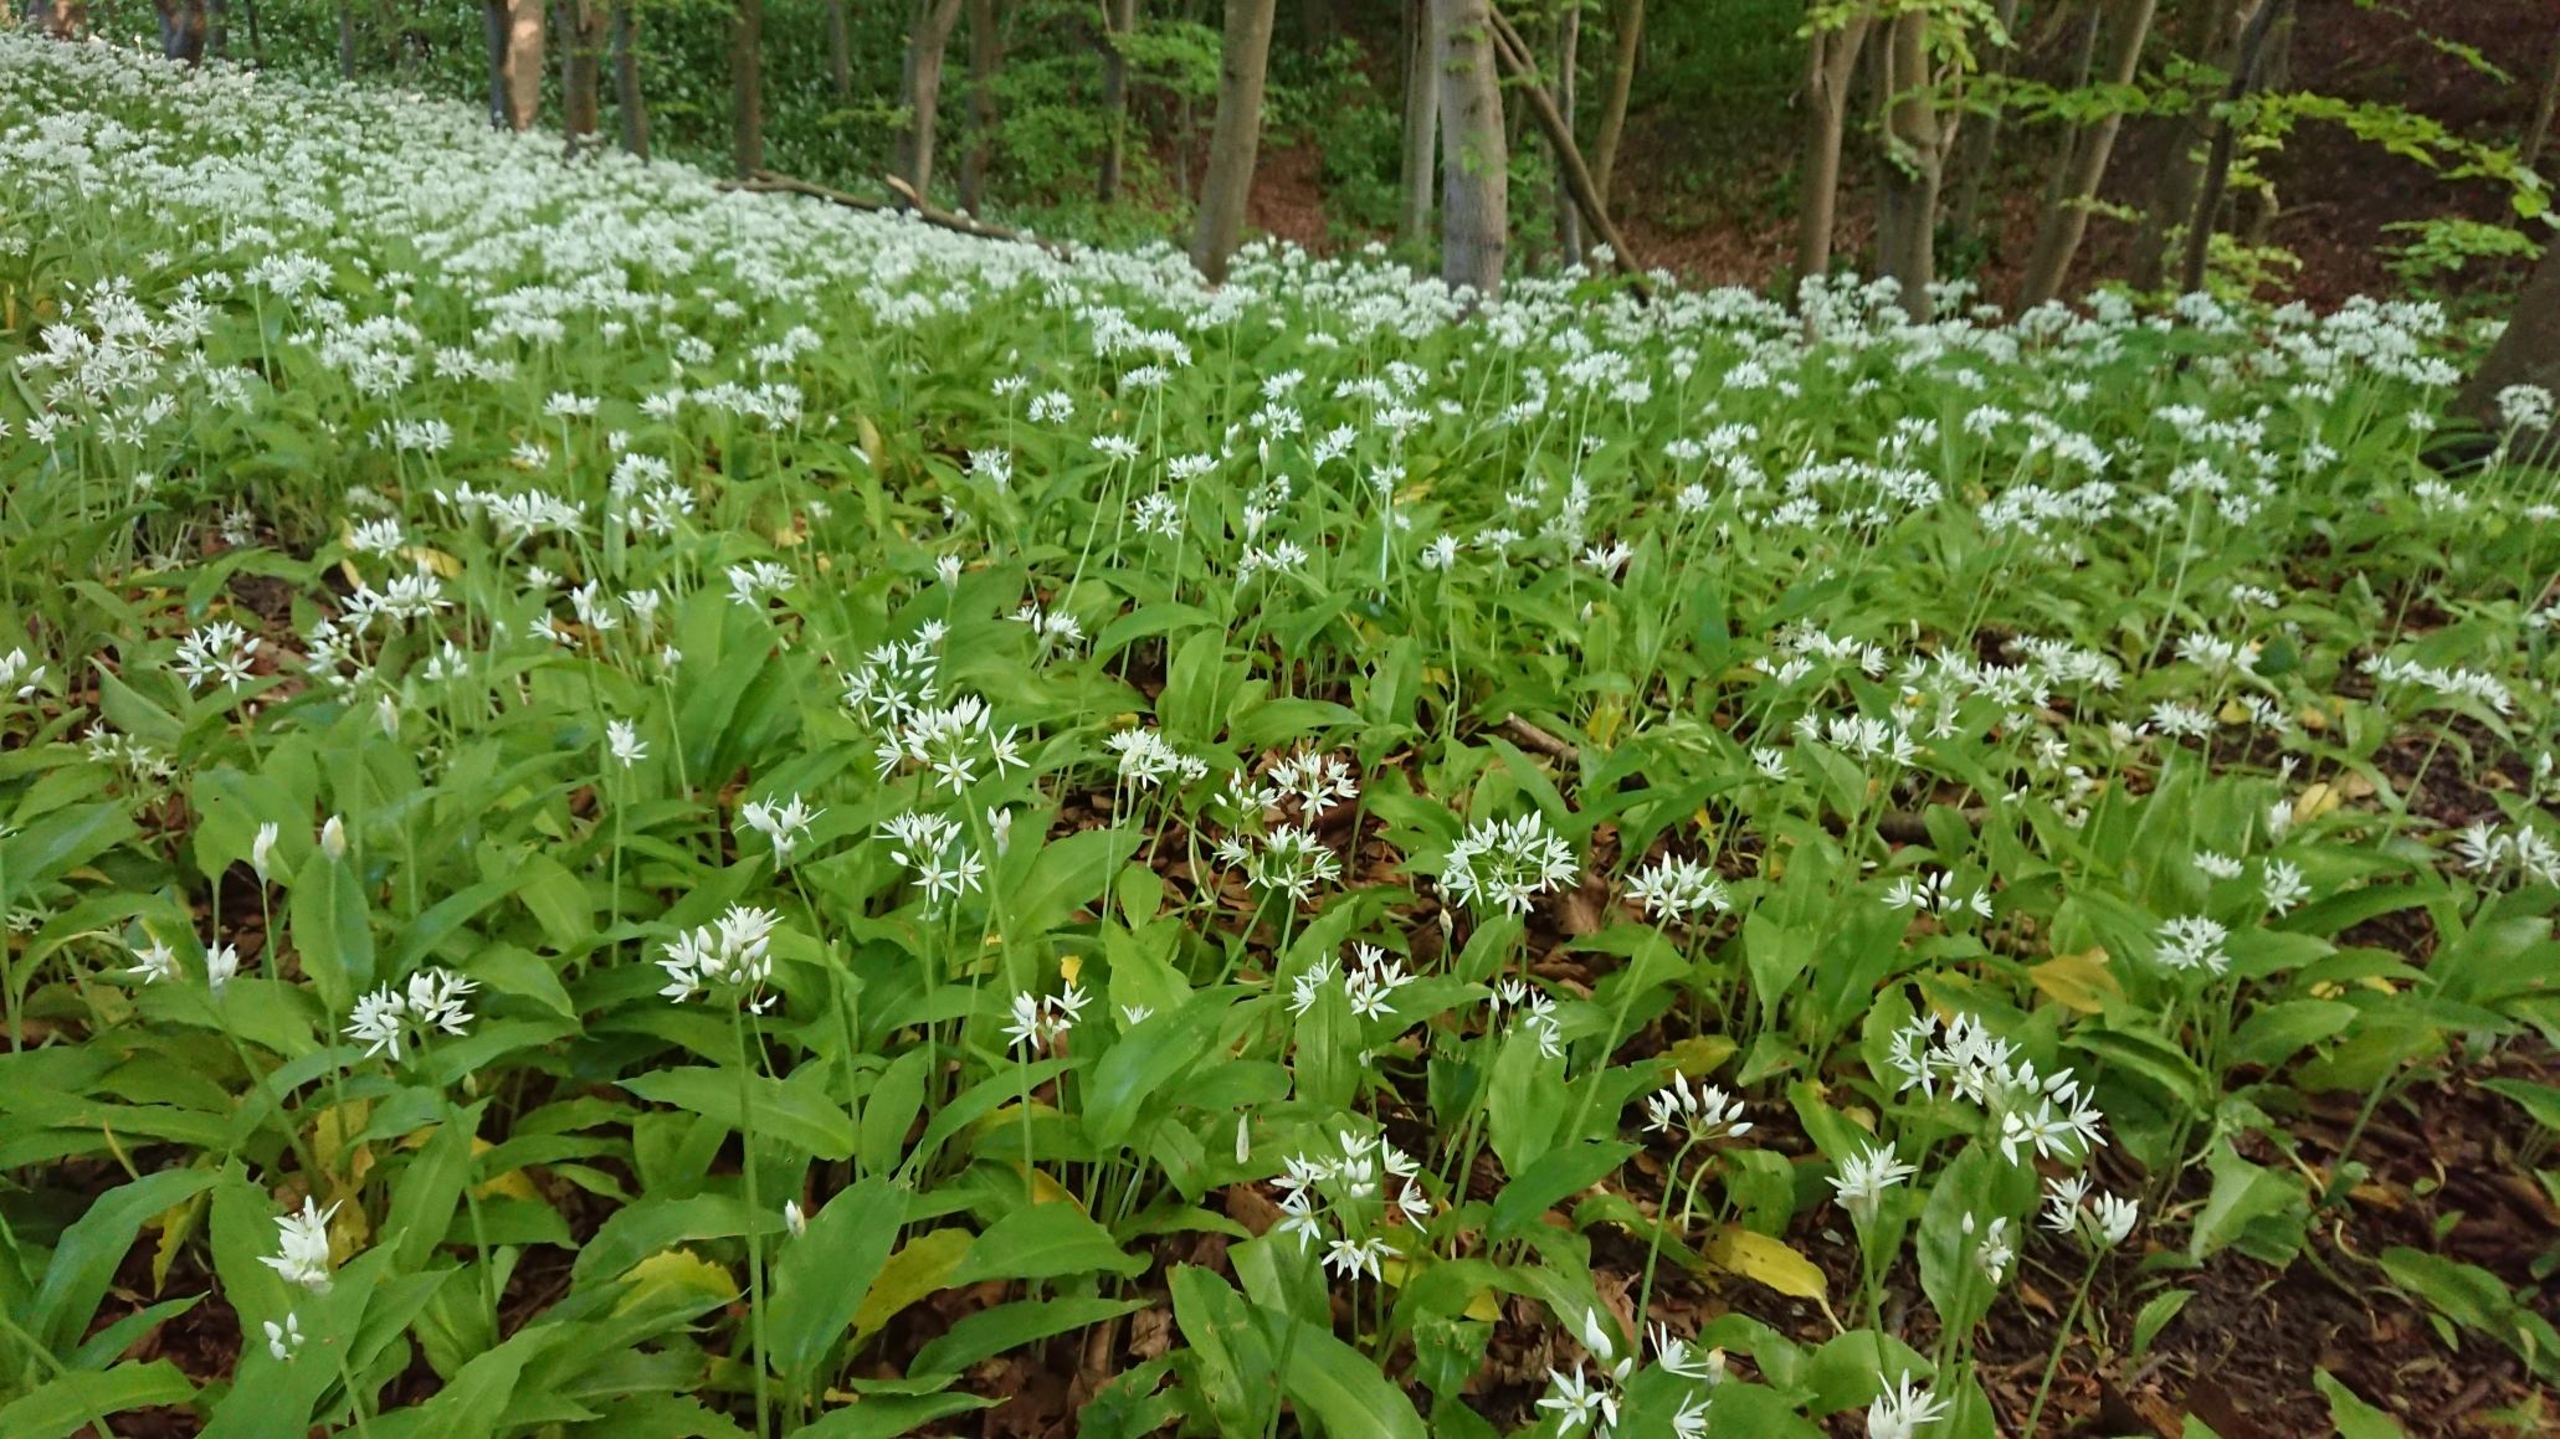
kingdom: Plantae
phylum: Tracheophyta
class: Liliopsida
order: Asparagales
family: Amaryllidaceae
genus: Allium
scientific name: Allium ursinum
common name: Rams-løg
